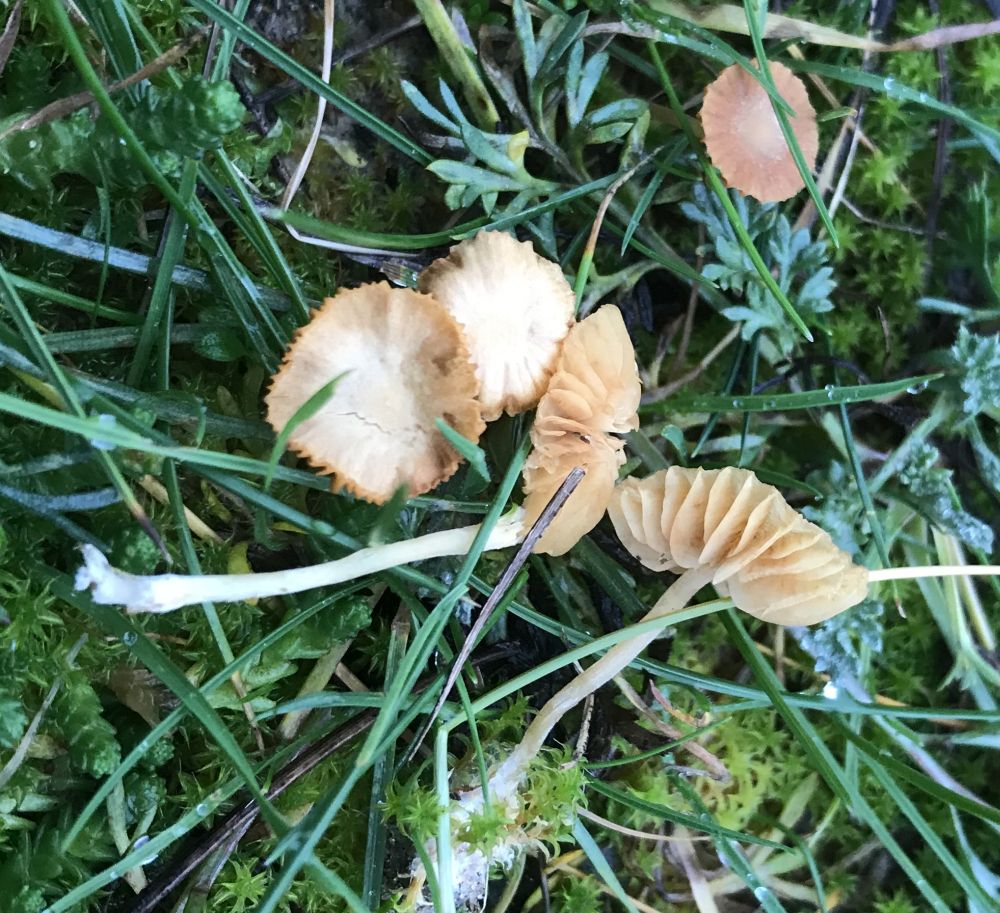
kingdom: Fungi
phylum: Basidiomycota
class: Agaricomycetes
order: Agaricales
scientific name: Agaricales
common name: champignonordenen
